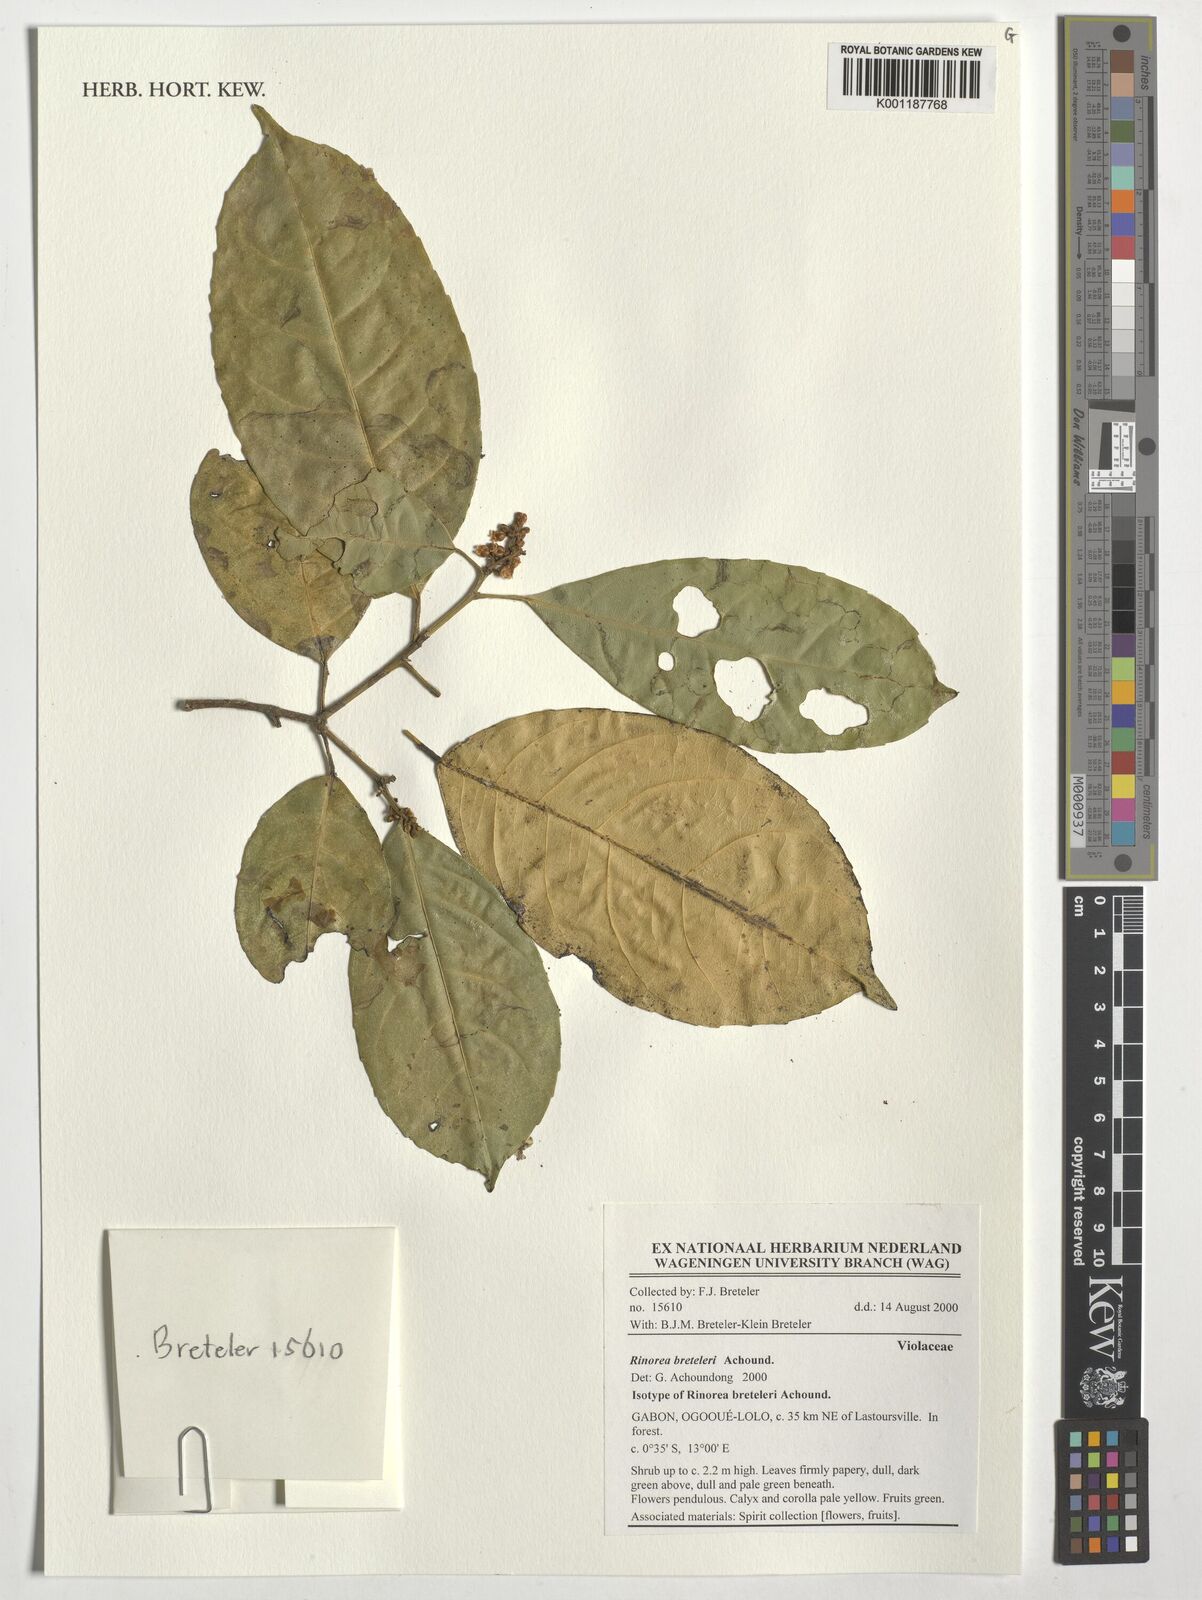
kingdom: Plantae
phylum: Tracheophyta
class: Magnoliopsida
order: Malpighiales
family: Violaceae
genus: Rinorea
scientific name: Rinorea breteleri
